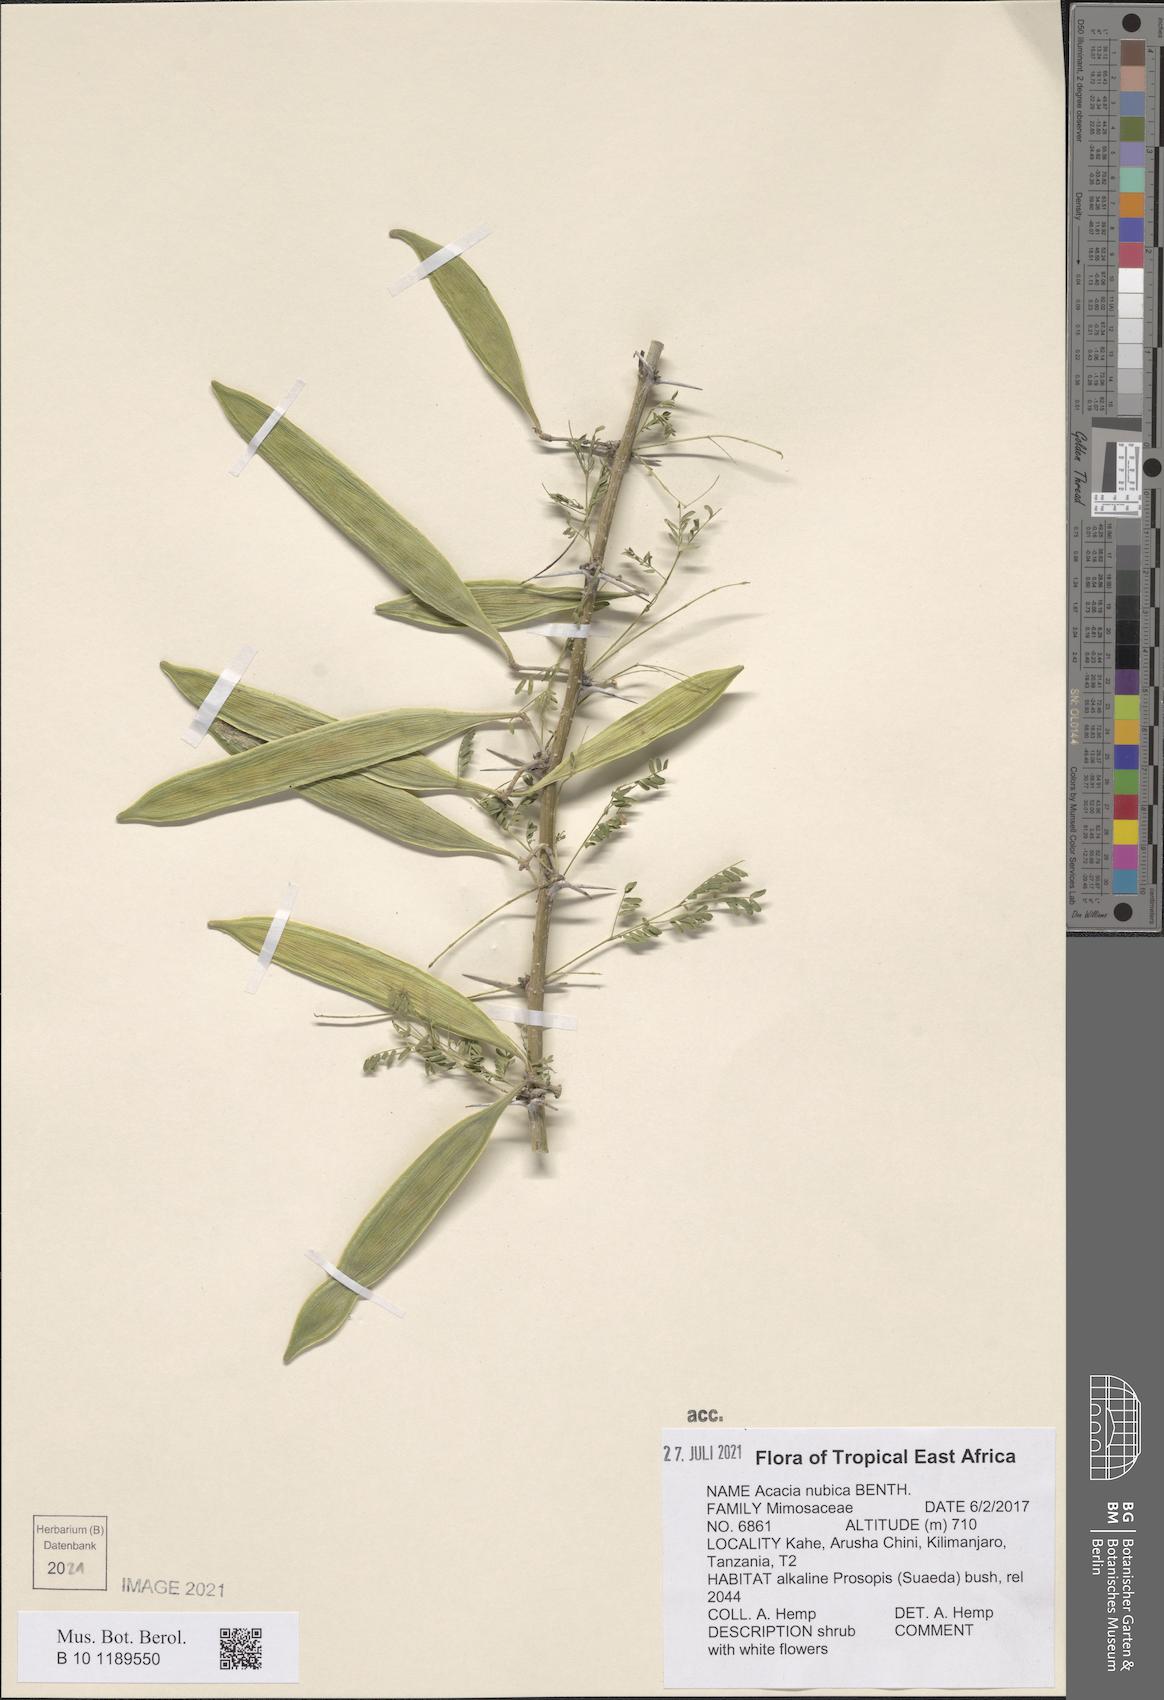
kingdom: Plantae
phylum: Tracheophyta
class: Magnoliopsida
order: Fabales
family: Fabaceae
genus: Vachellia
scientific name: Vachellia oerfota
